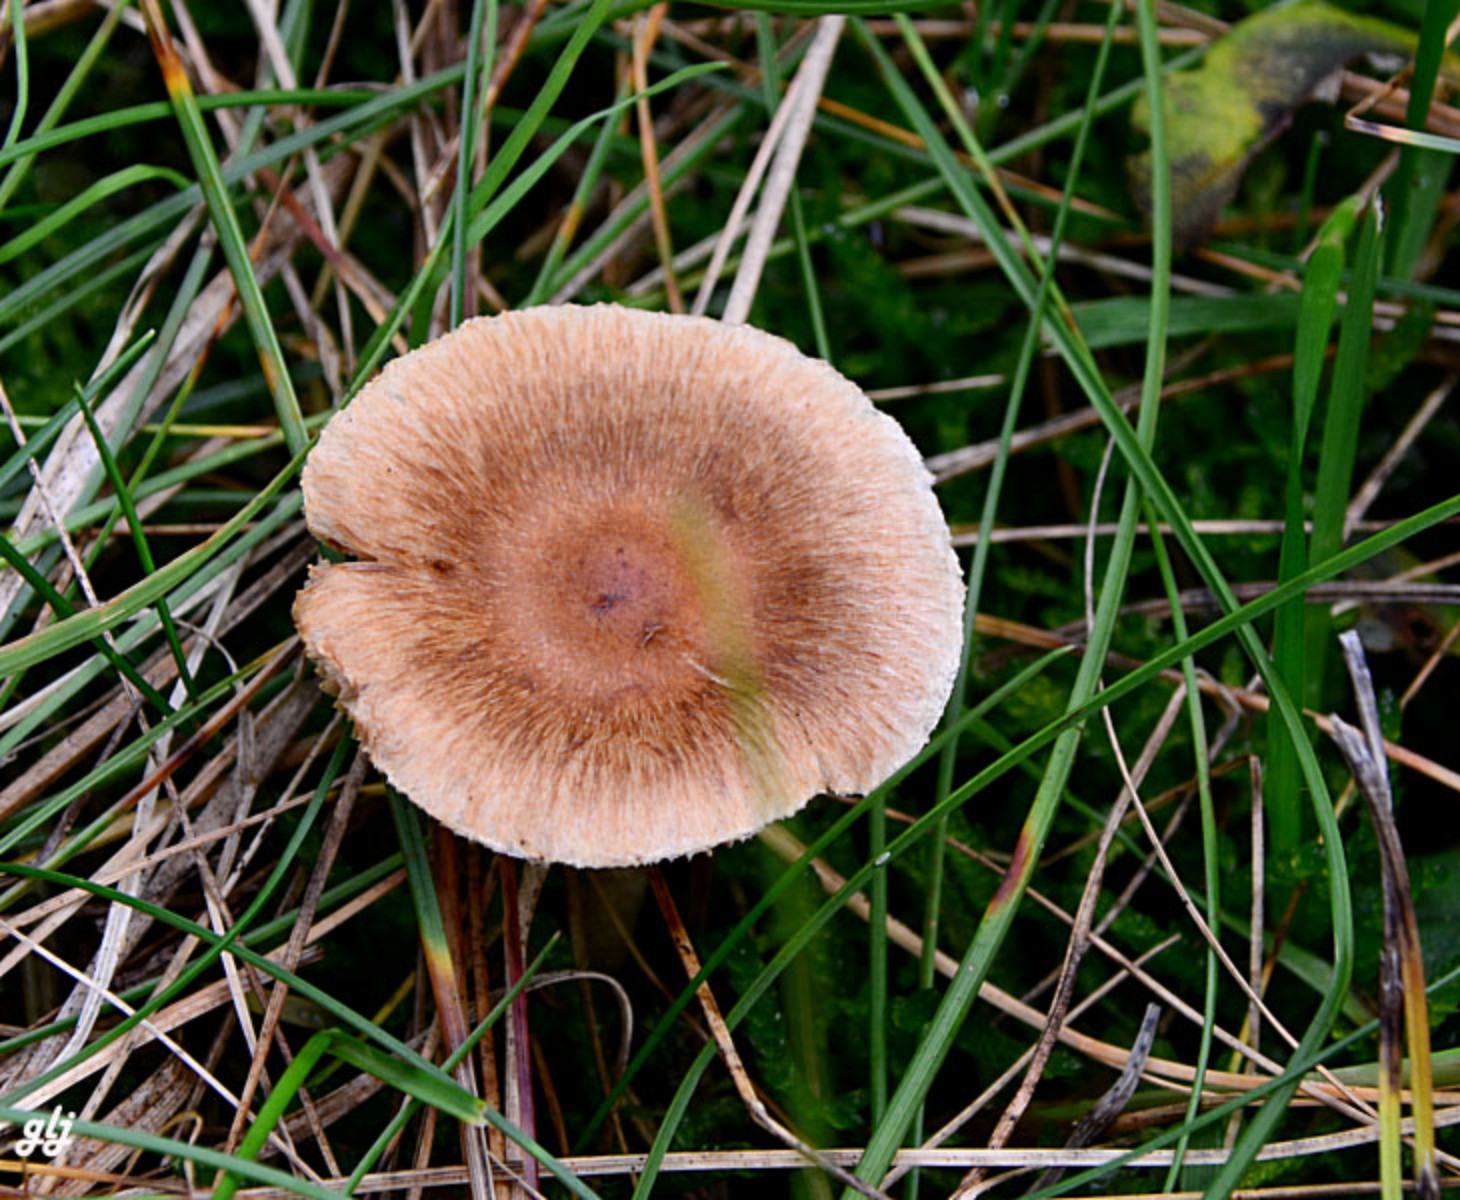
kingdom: Fungi
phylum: Basidiomycota
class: Agaricomycetes
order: Agaricales
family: Inocybaceae
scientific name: Inocybaceae
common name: trævlhatfamilien
